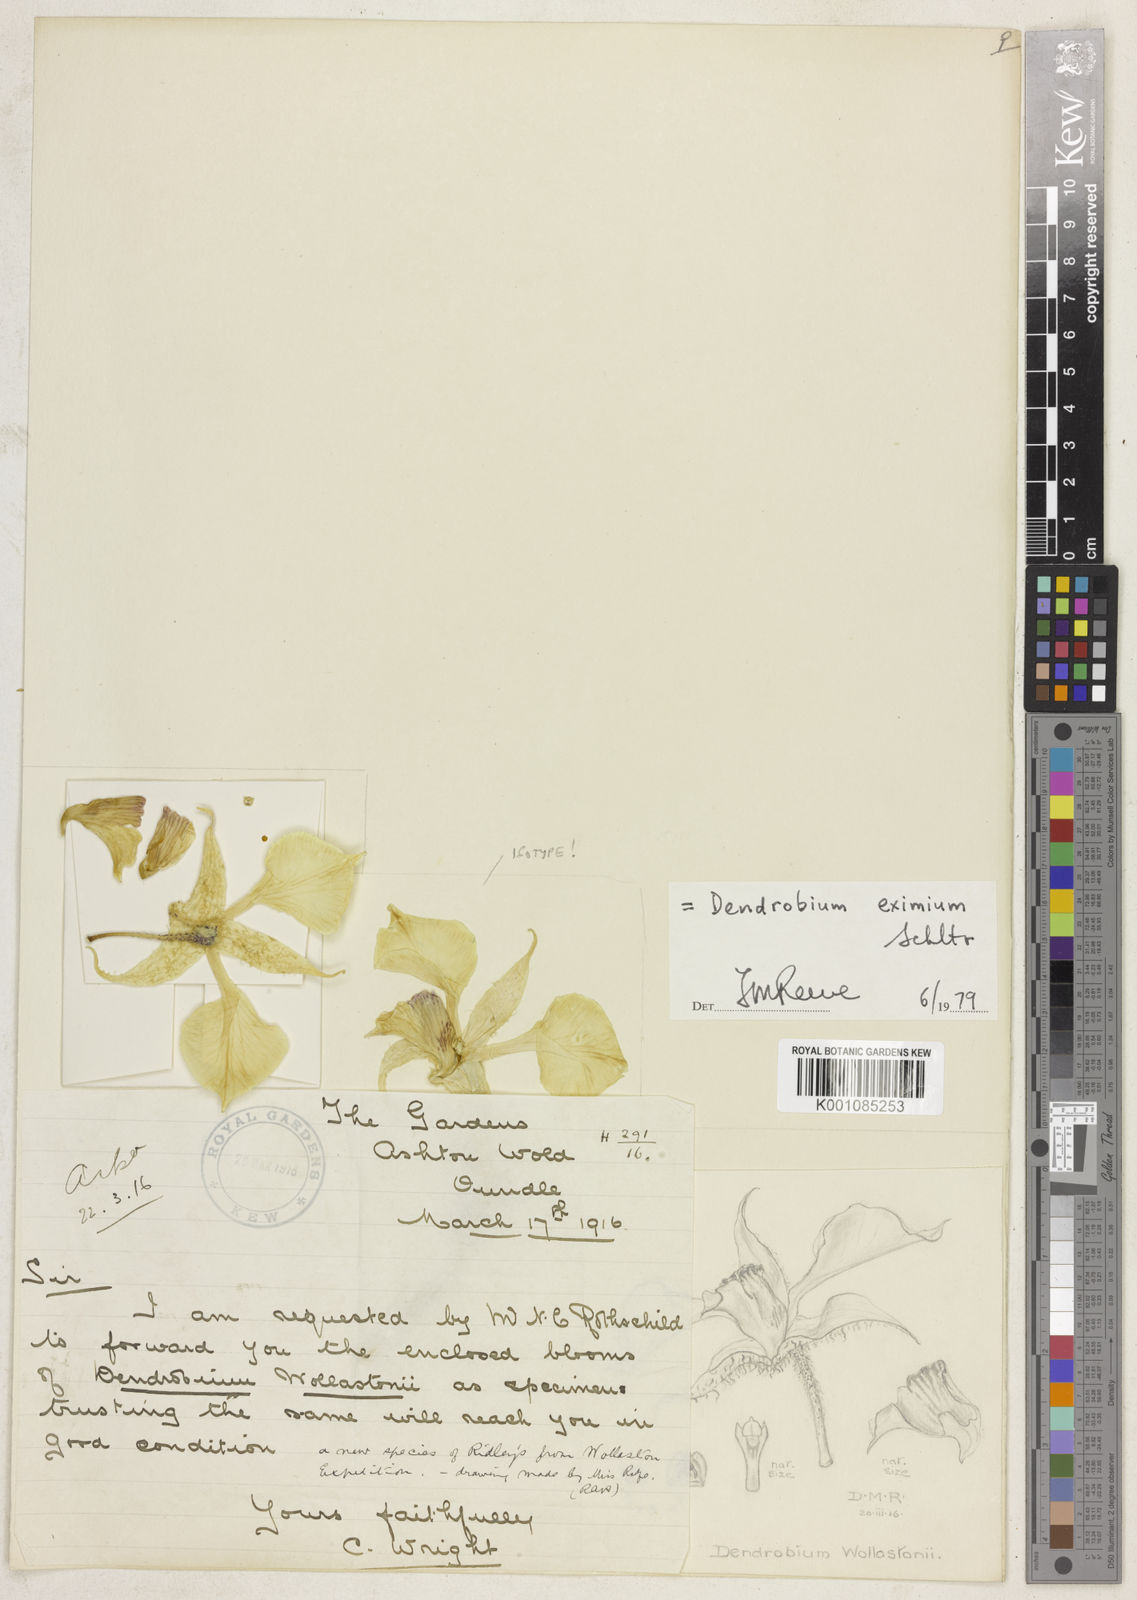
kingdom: Plantae
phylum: Tracheophyta
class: Liliopsida
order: Asparagales
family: Orchidaceae
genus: Dendrobium
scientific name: Dendrobium eximium
